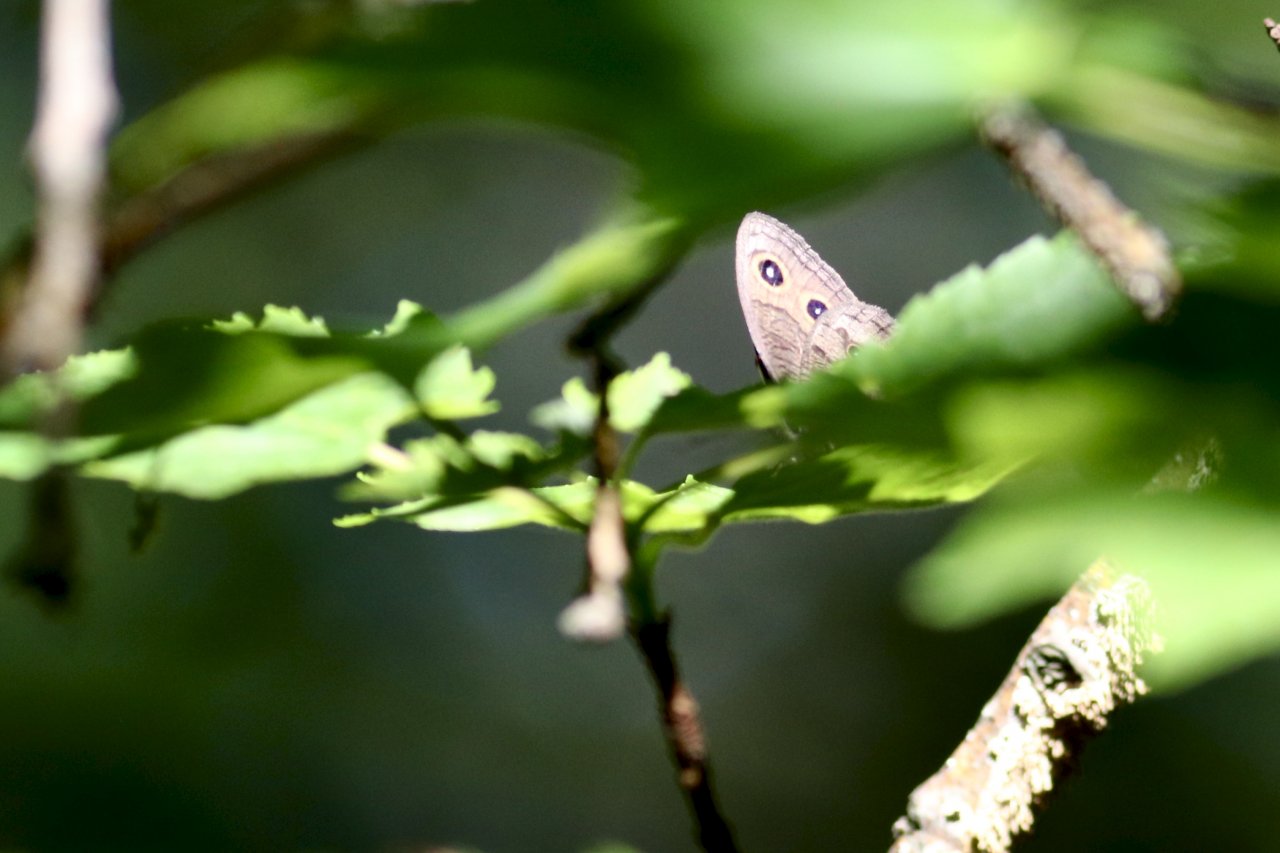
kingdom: Animalia
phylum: Arthropoda
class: Insecta
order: Lepidoptera
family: Nymphalidae
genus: Cercyonis
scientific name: Cercyonis pegala
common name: Common Wood-Nymph
